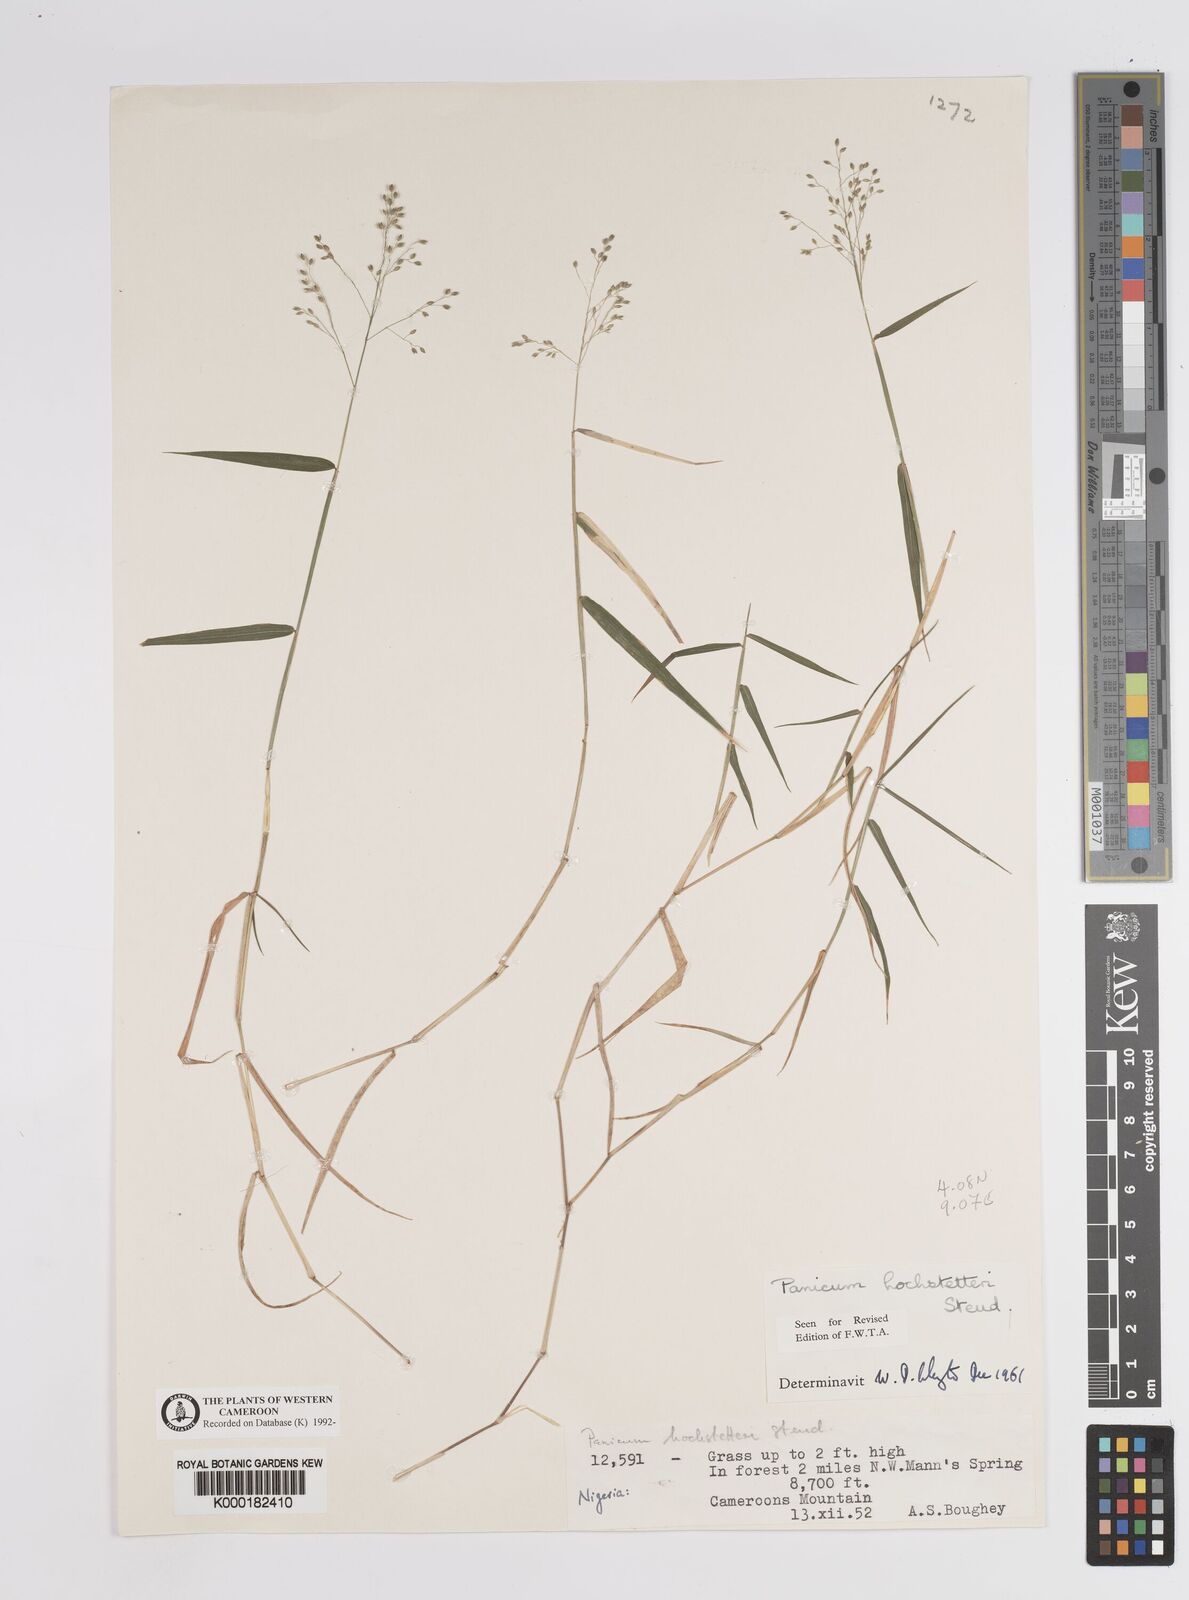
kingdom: Plantae
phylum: Tracheophyta
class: Liliopsida
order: Poales
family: Poaceae
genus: Panicum
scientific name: Panicum hochstetteri
